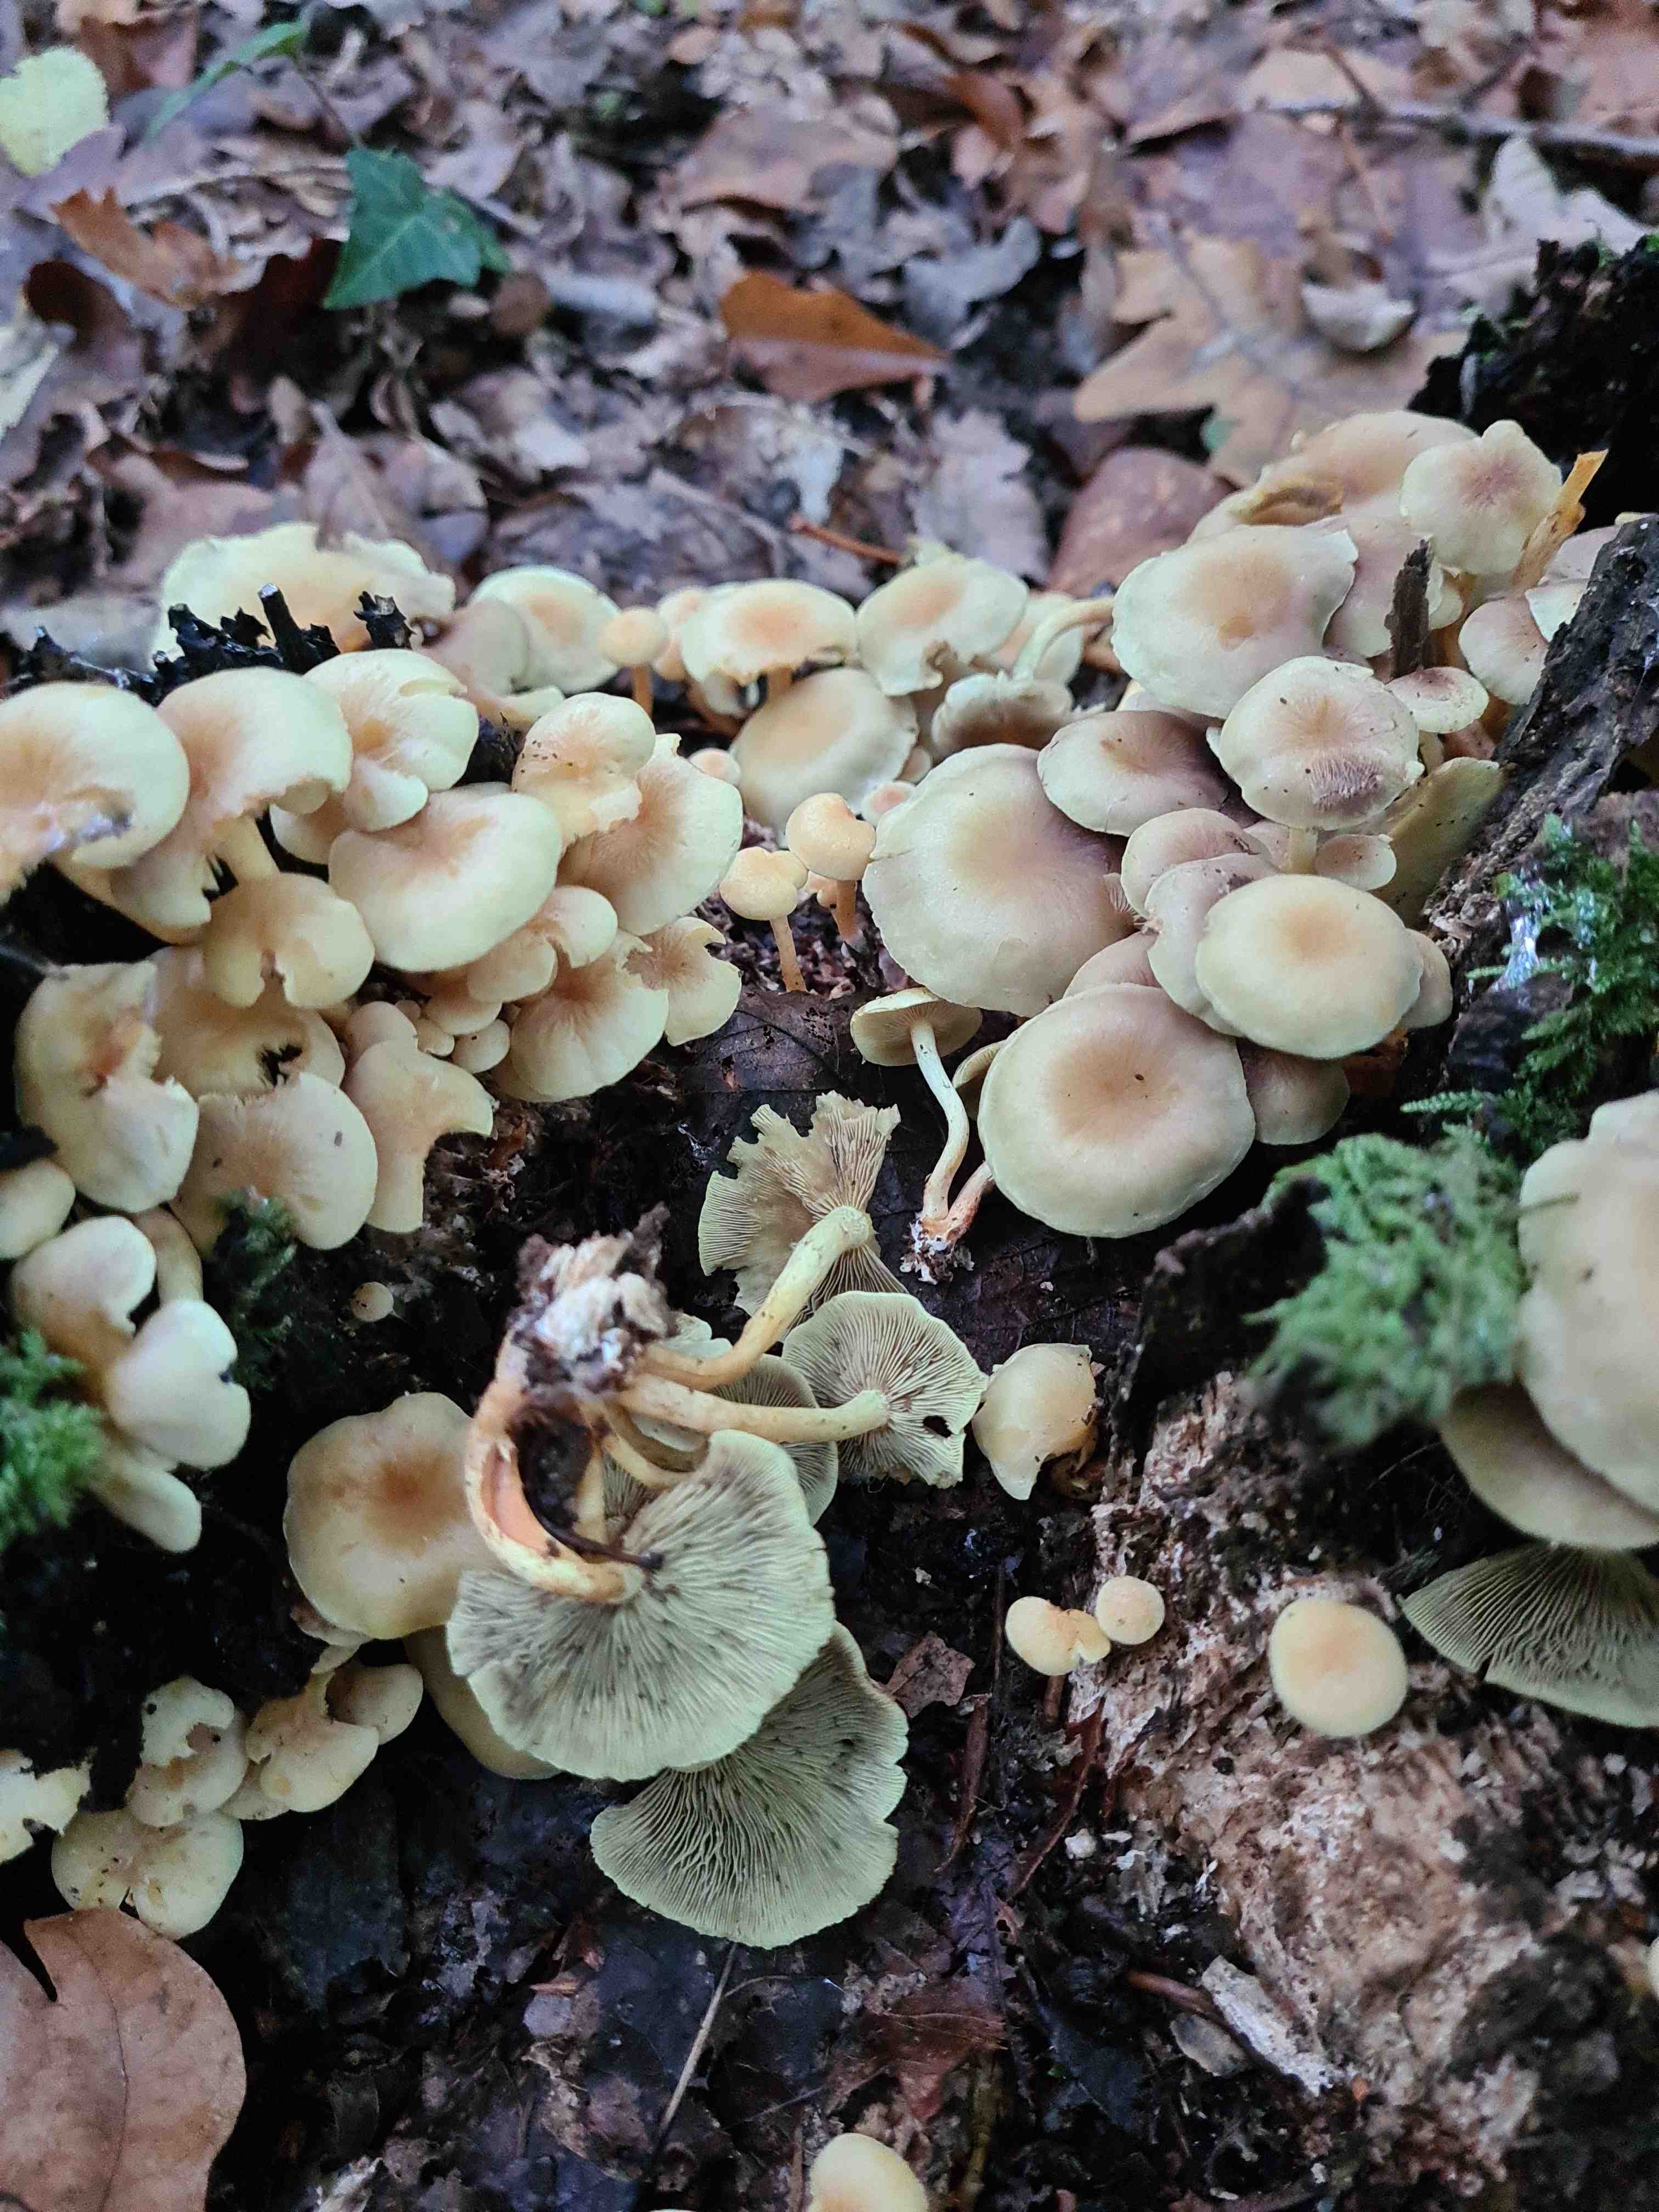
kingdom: Fungi
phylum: Basidiomycota
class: Agaricomycetes
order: Agaricales
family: Strophariaceae
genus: Hypholoma
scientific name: Hypholoma fasciculare
